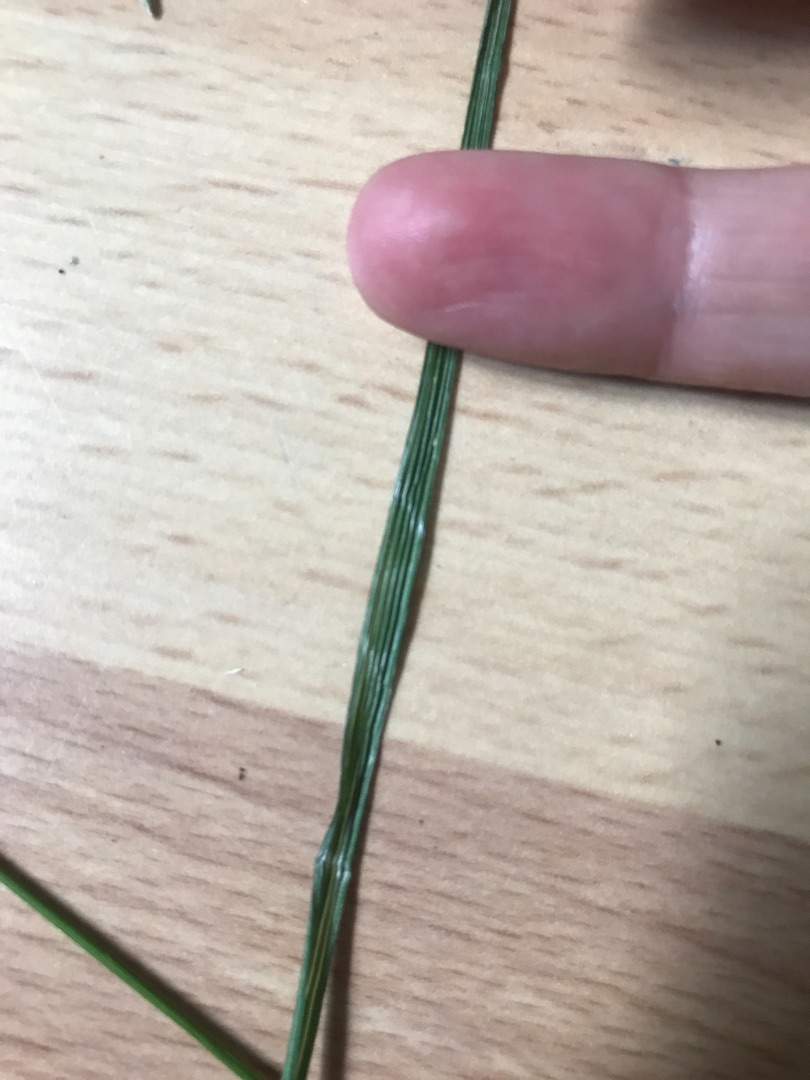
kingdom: Plantae
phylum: Tracheophyta
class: Liliopsida
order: Poales
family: Poaceae
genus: Deschampsia
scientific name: Deschampsia cespitosa
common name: Mose-bunke
